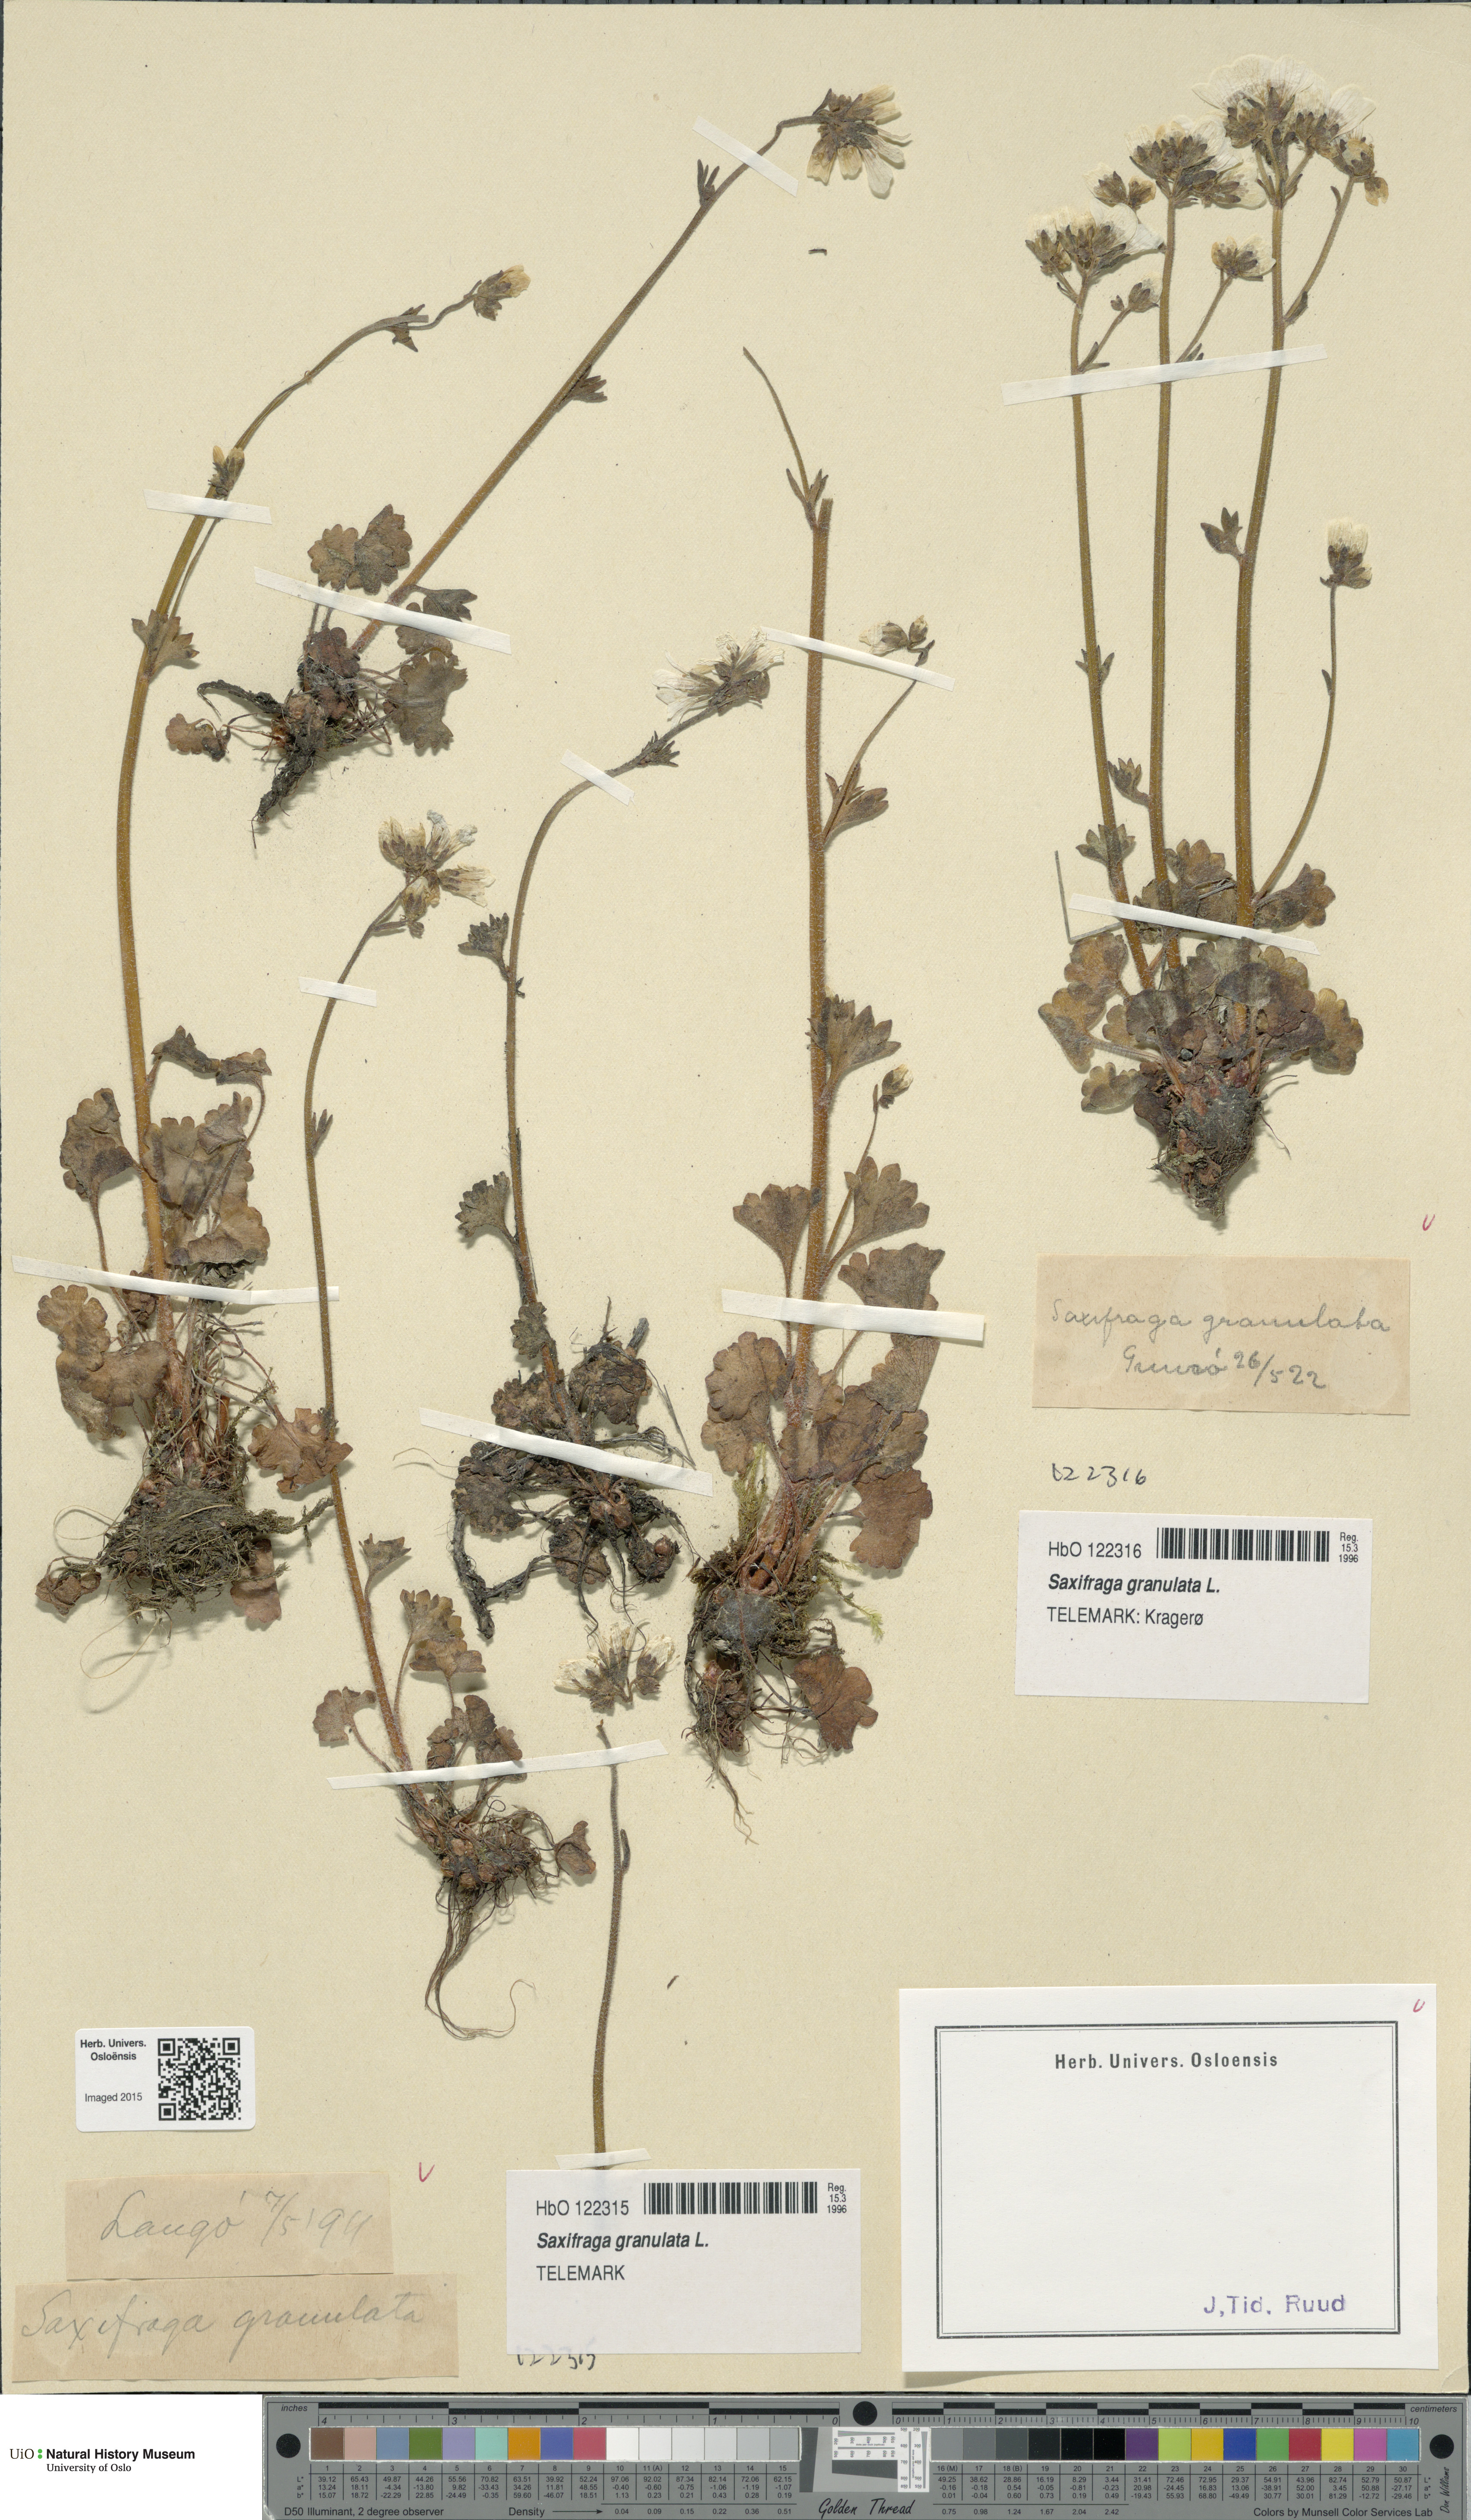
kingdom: Plantae
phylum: Tracheophyta
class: Magnoliopsida
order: Saxifragales
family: Saxifragaceae
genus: Saxifraga
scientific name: Saxifraga granulata
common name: Meadow saxifrage
